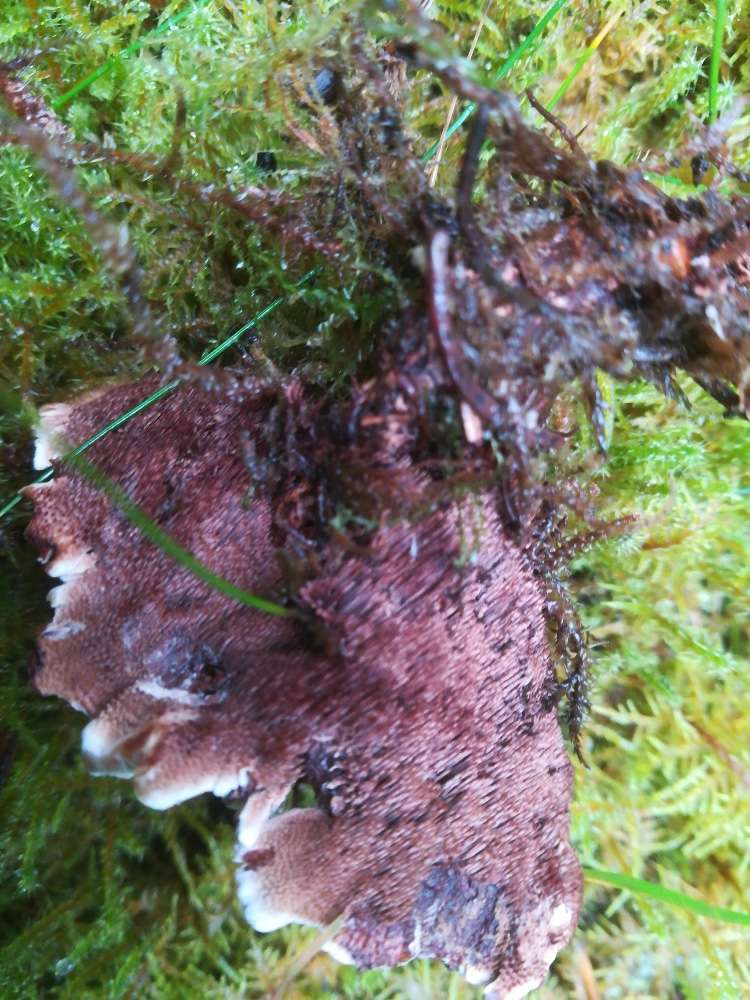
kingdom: Fungi
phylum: Basidiomycota
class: Agaricomycetes
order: Thelephorales
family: Bankeraceae
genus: Hydnellum
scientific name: Hydnellum concrescens
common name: bæltet korkpigsvamp
